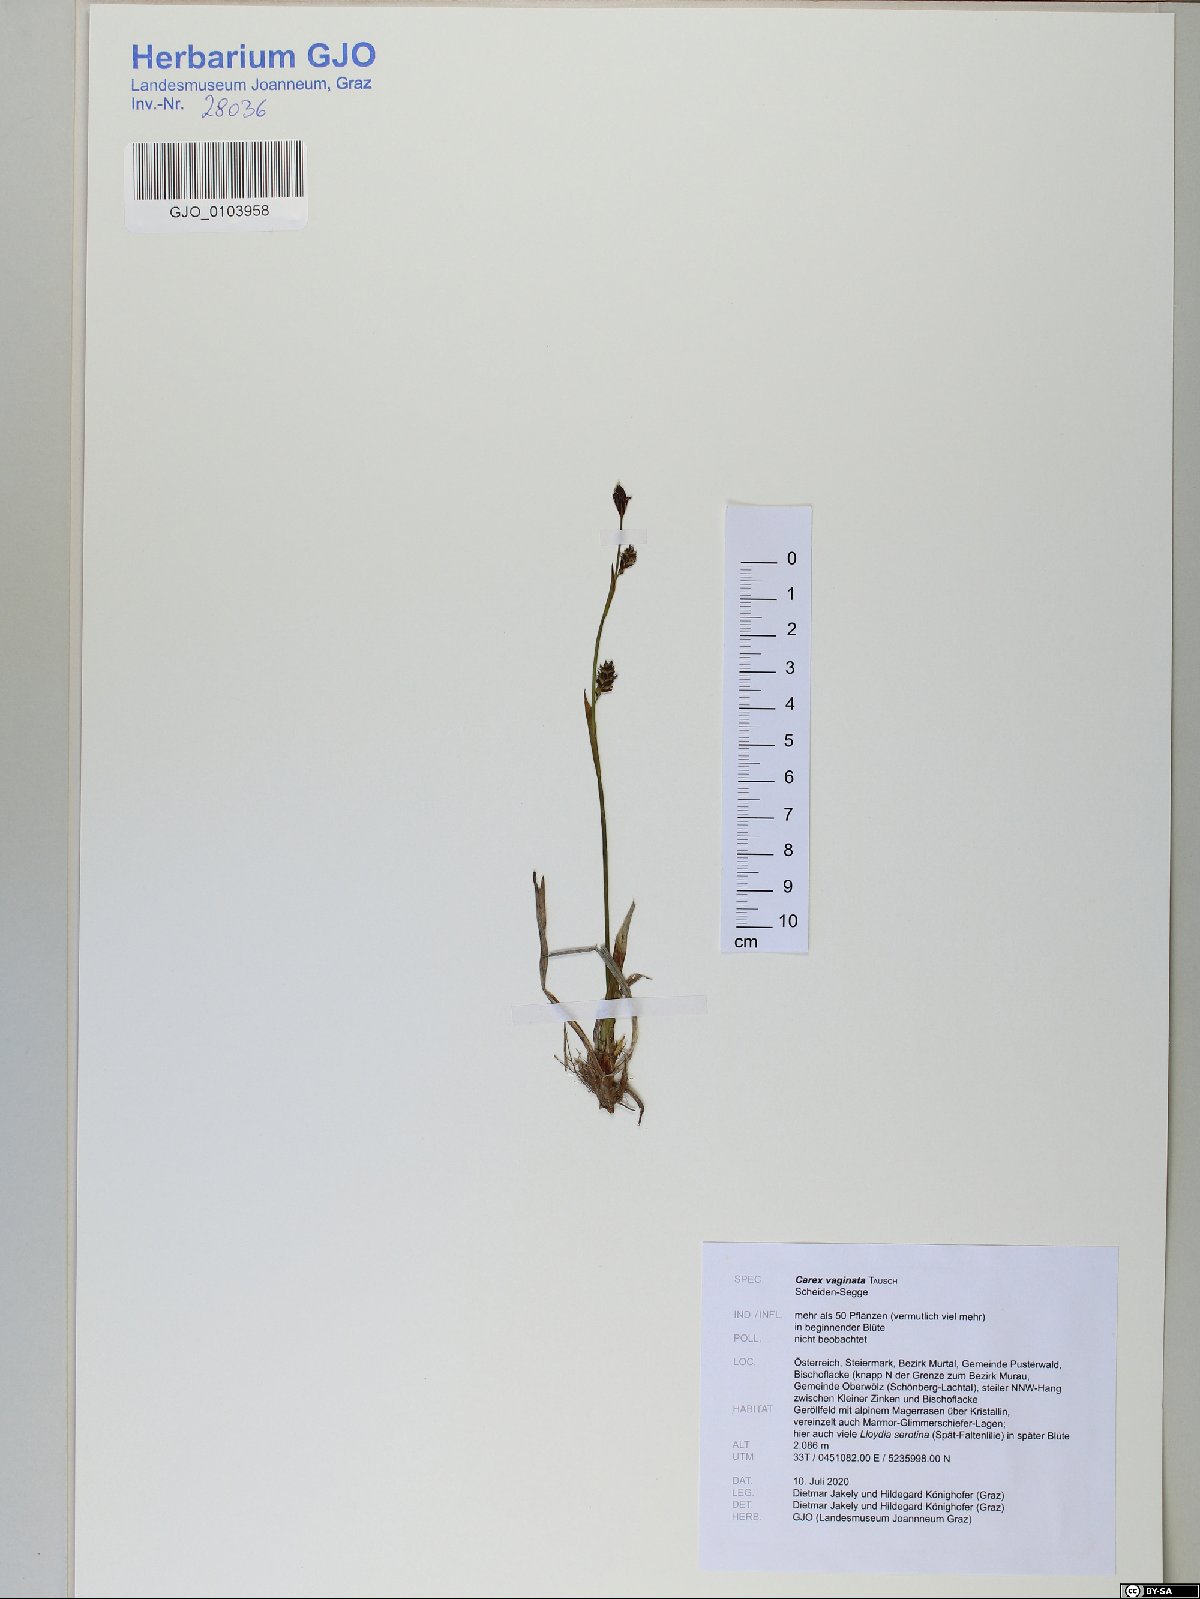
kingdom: Plantae
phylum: Tracheophyta
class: Liliopsida
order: Poales
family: Cyperaceae
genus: Carex
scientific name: Carex vaginata
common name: Sheathed sedge
